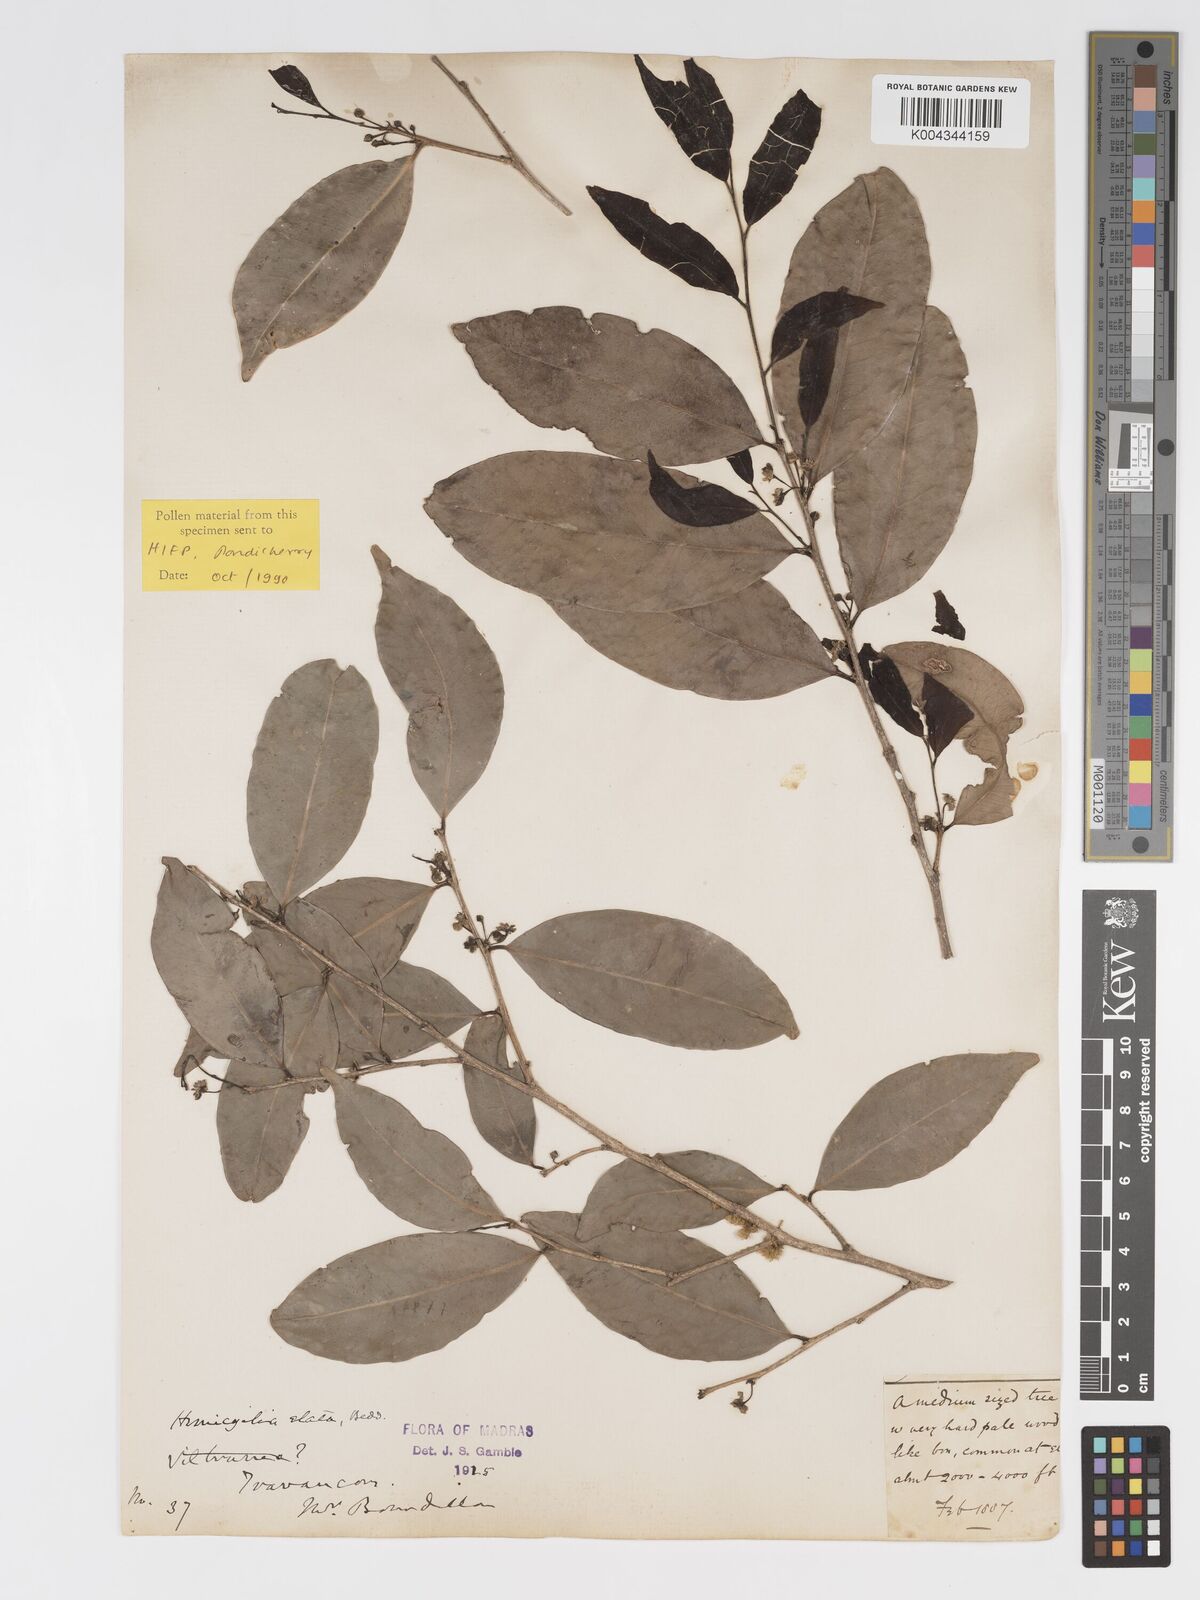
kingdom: Plantae
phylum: Tracheophyta
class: Magnoliopsida
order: Malpighiales
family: Putranjivaceae
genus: Drypetes
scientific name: Drypetes venusta
